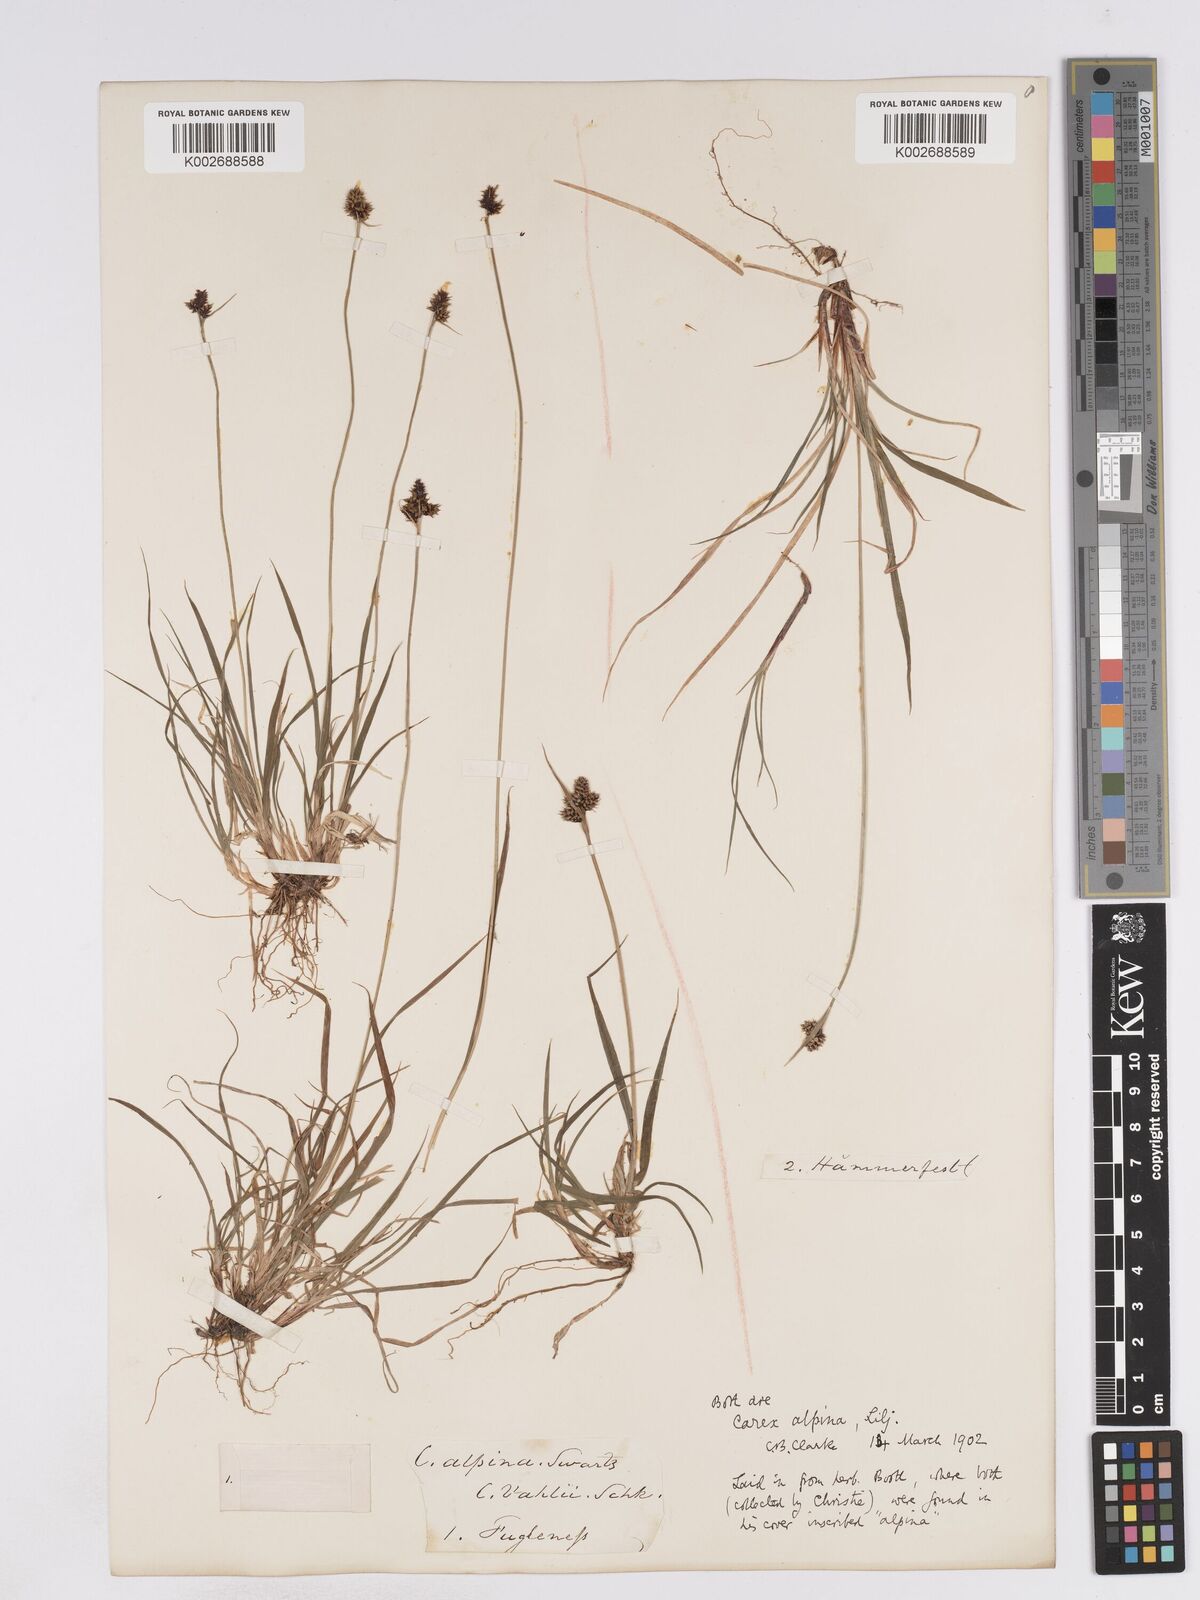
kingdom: Plantae
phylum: Tracheophyta
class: Liliopsida
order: Poales
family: Cyperaceae
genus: Carex
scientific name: Carex norvegica
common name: Close-headed alpine-sedge
